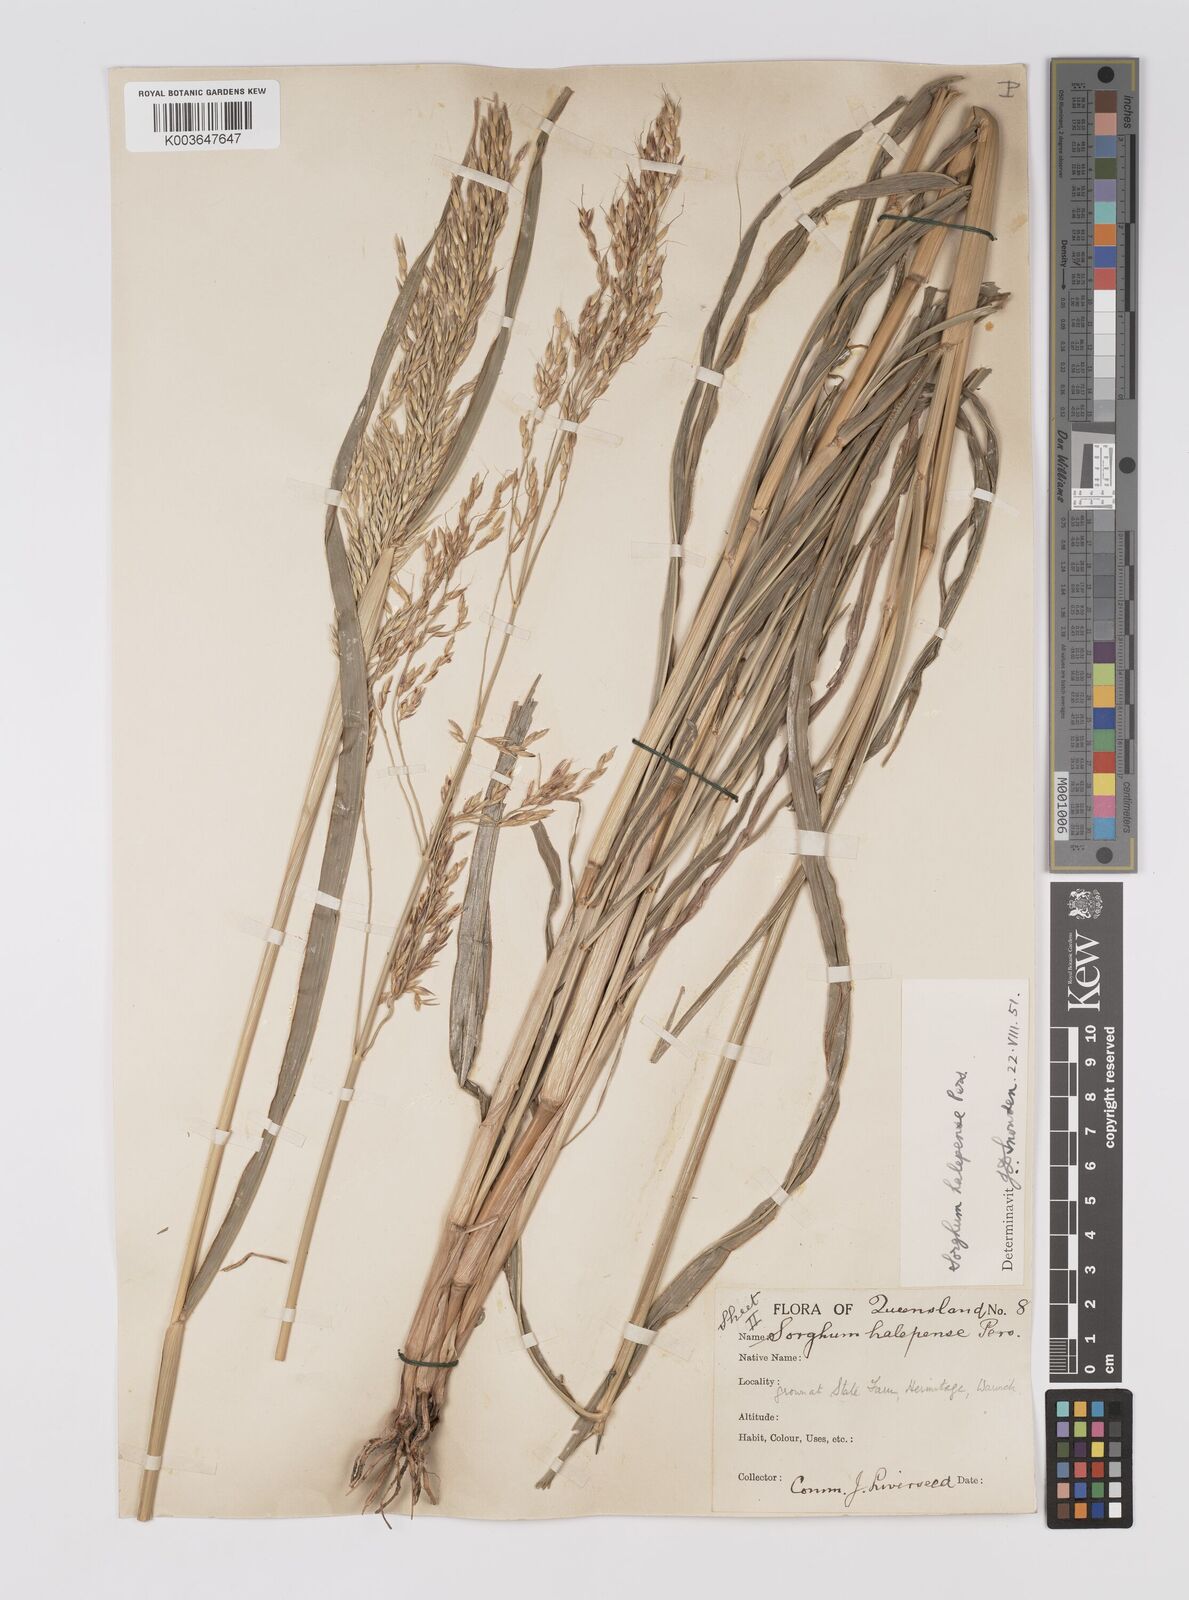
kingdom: Plantae
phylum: Tracheophyta
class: Liliopsida
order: Poales
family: Poaceae
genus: Sorghum
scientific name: Sorghum halepense
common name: Johnson-grass
